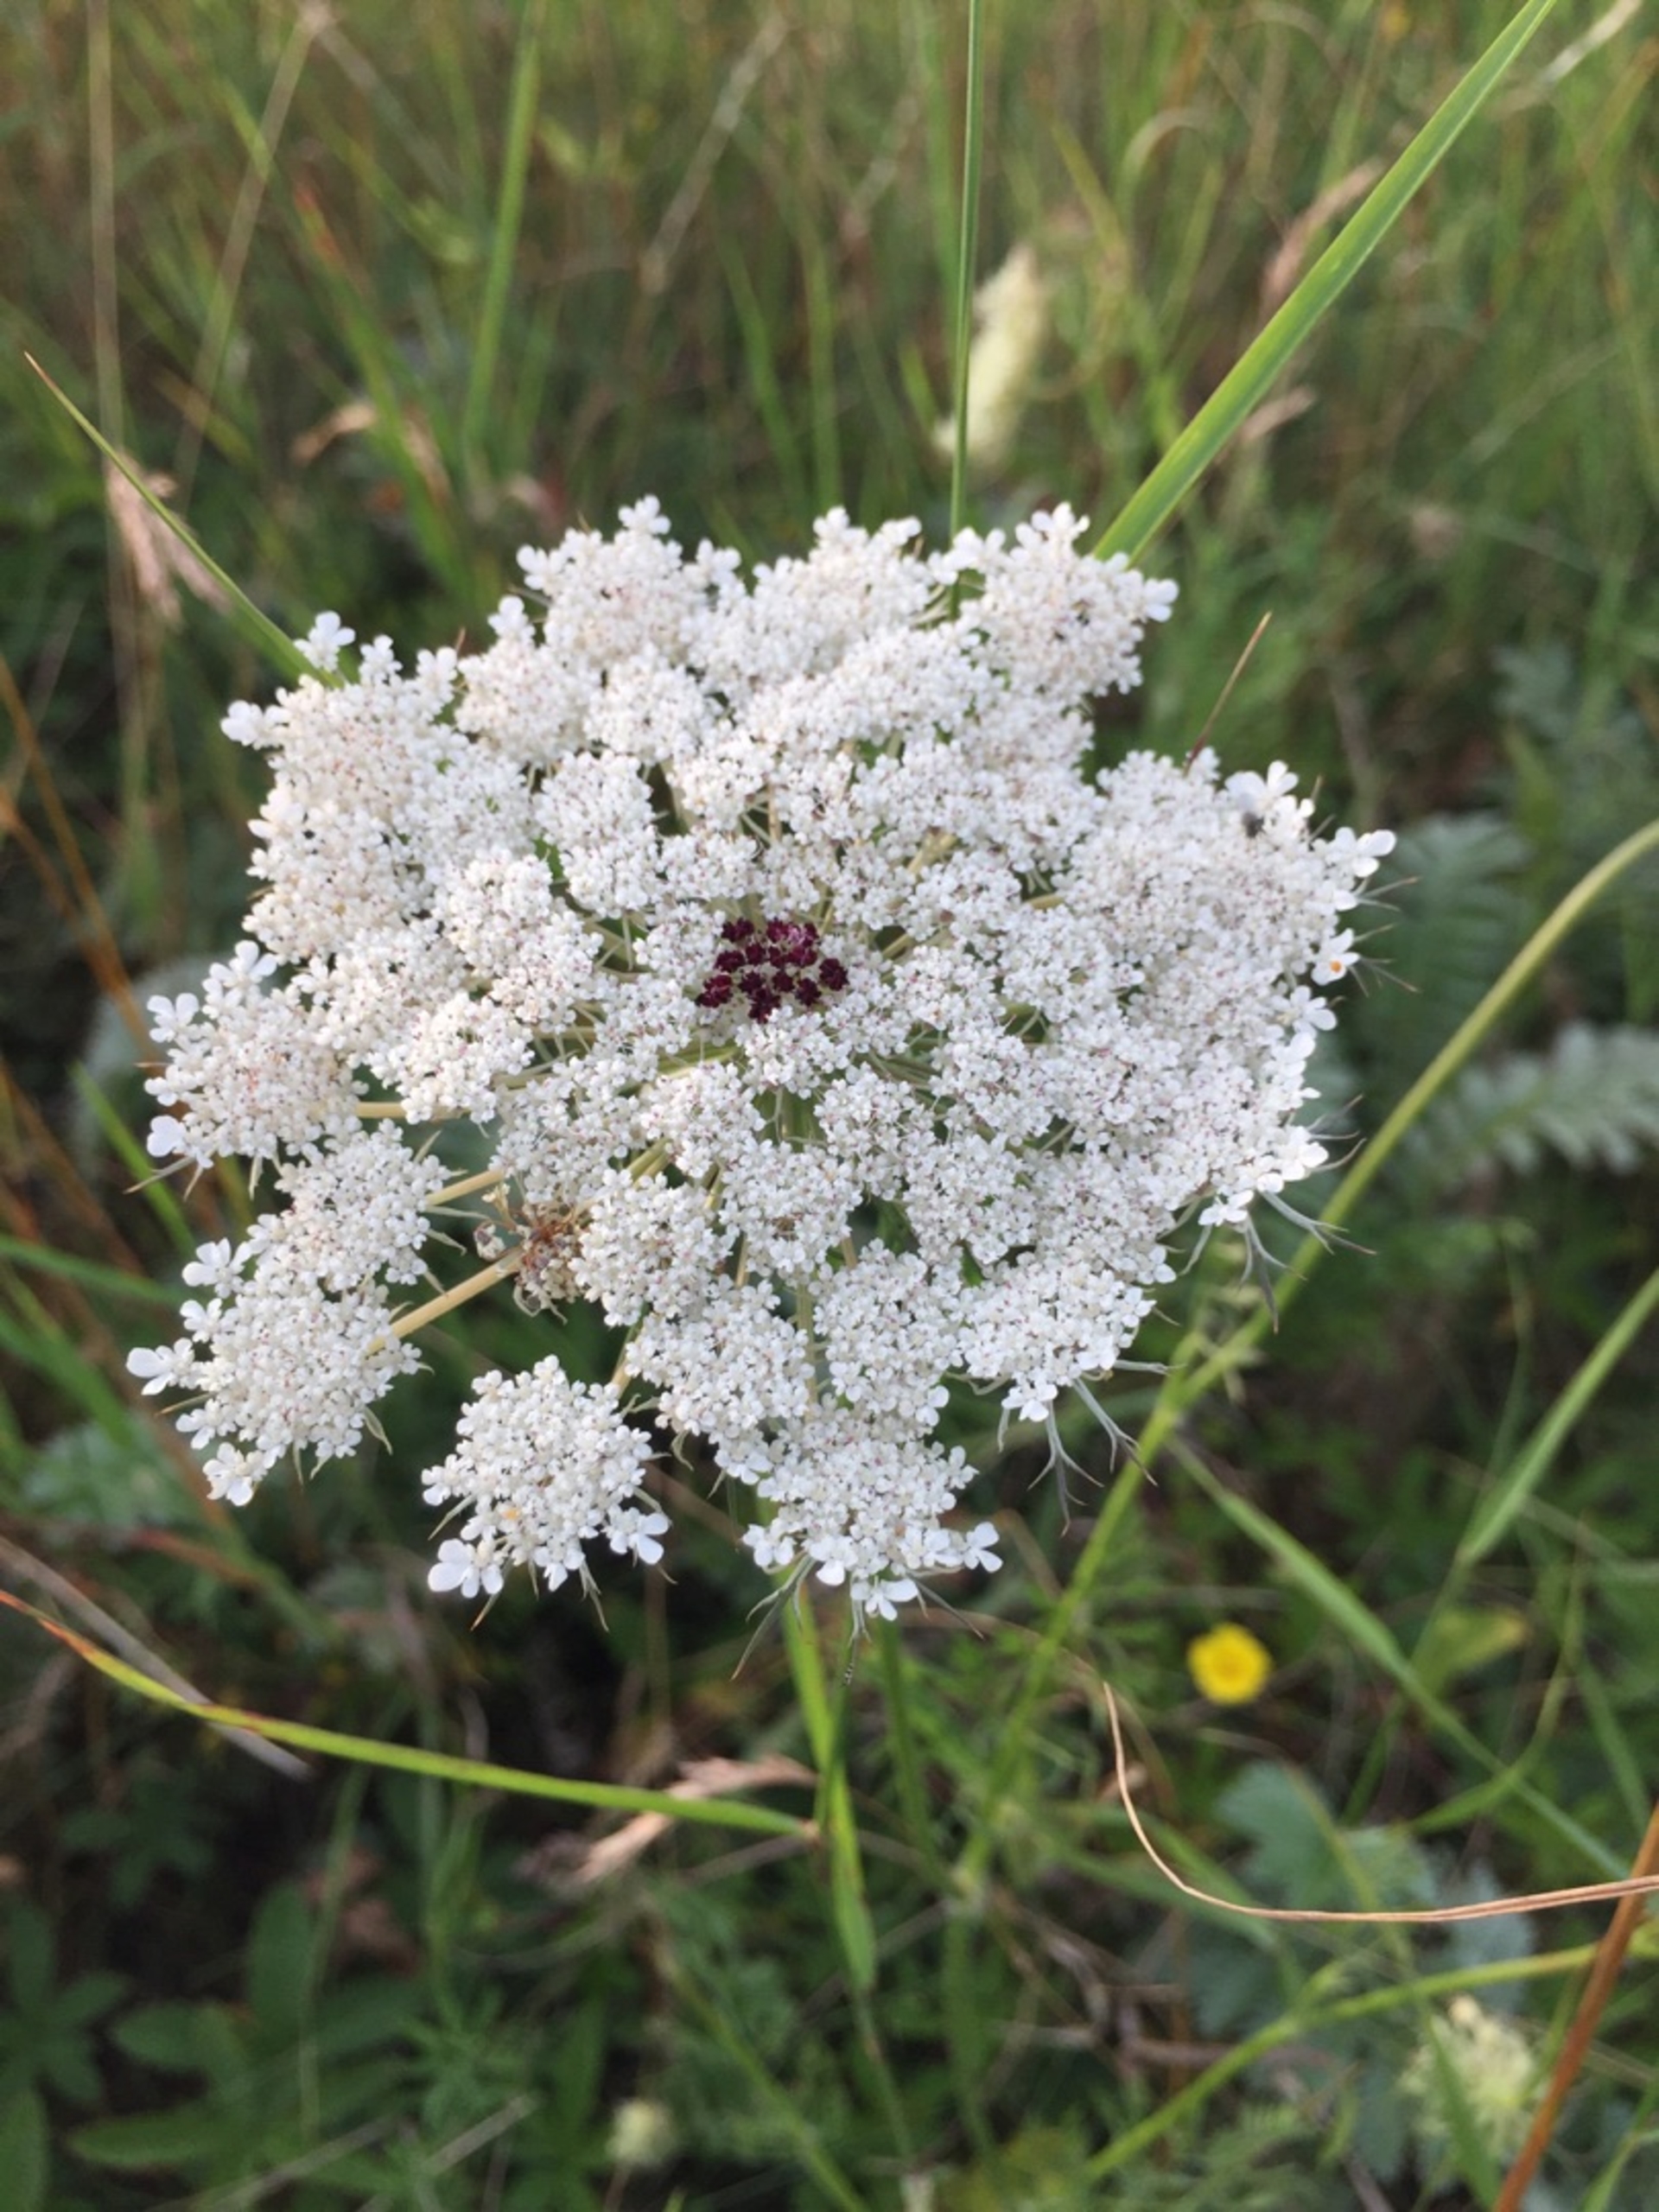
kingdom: Plantae
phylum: Tracheophyta
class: Magnoliopsida
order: Apiales
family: Apiaceae
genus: Daucus
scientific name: Daucus carota
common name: Vild gulerod
